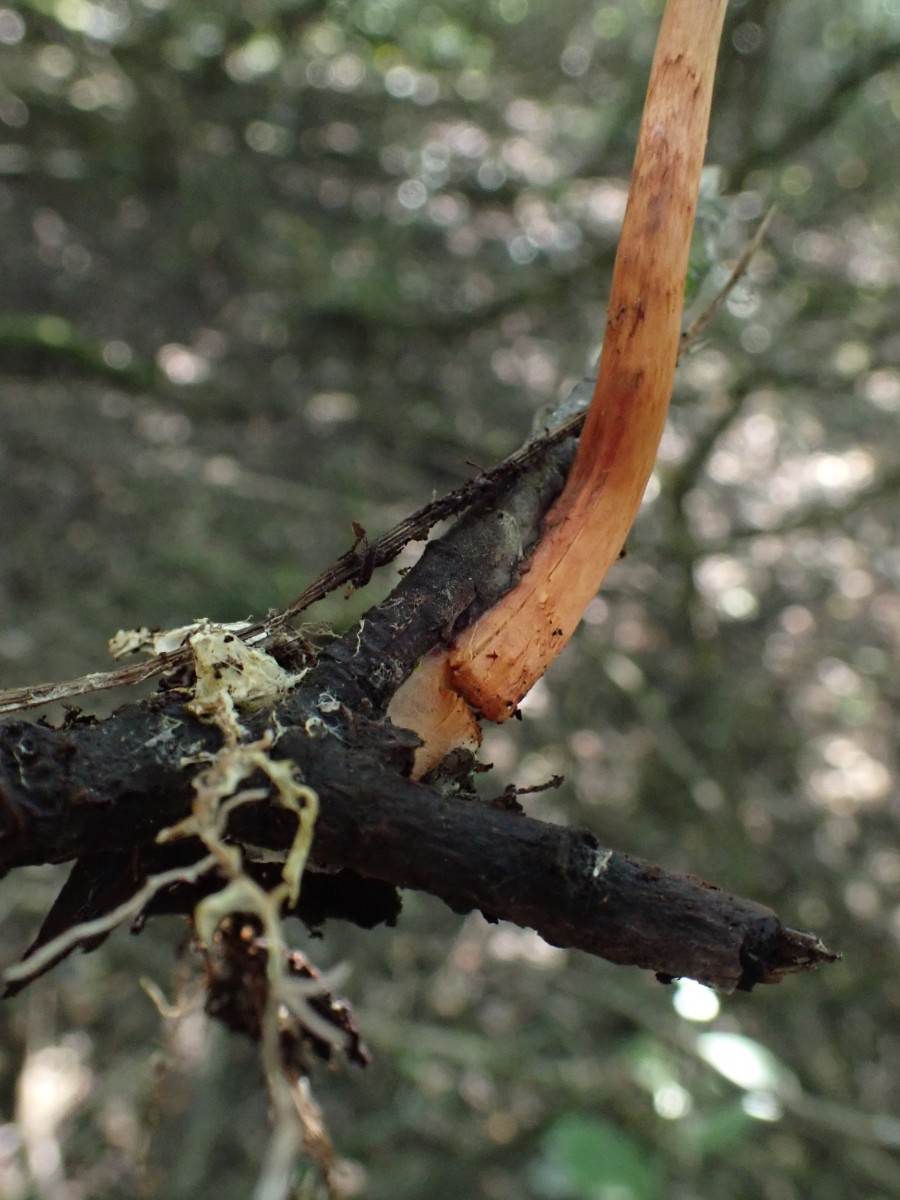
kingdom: Fungi
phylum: Basidiomycota
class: Agaricomycetes
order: Agaricales
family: Cortinariaceae
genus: Cortinarius
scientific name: Cortinarius uliginosus
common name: mose-slørhat
